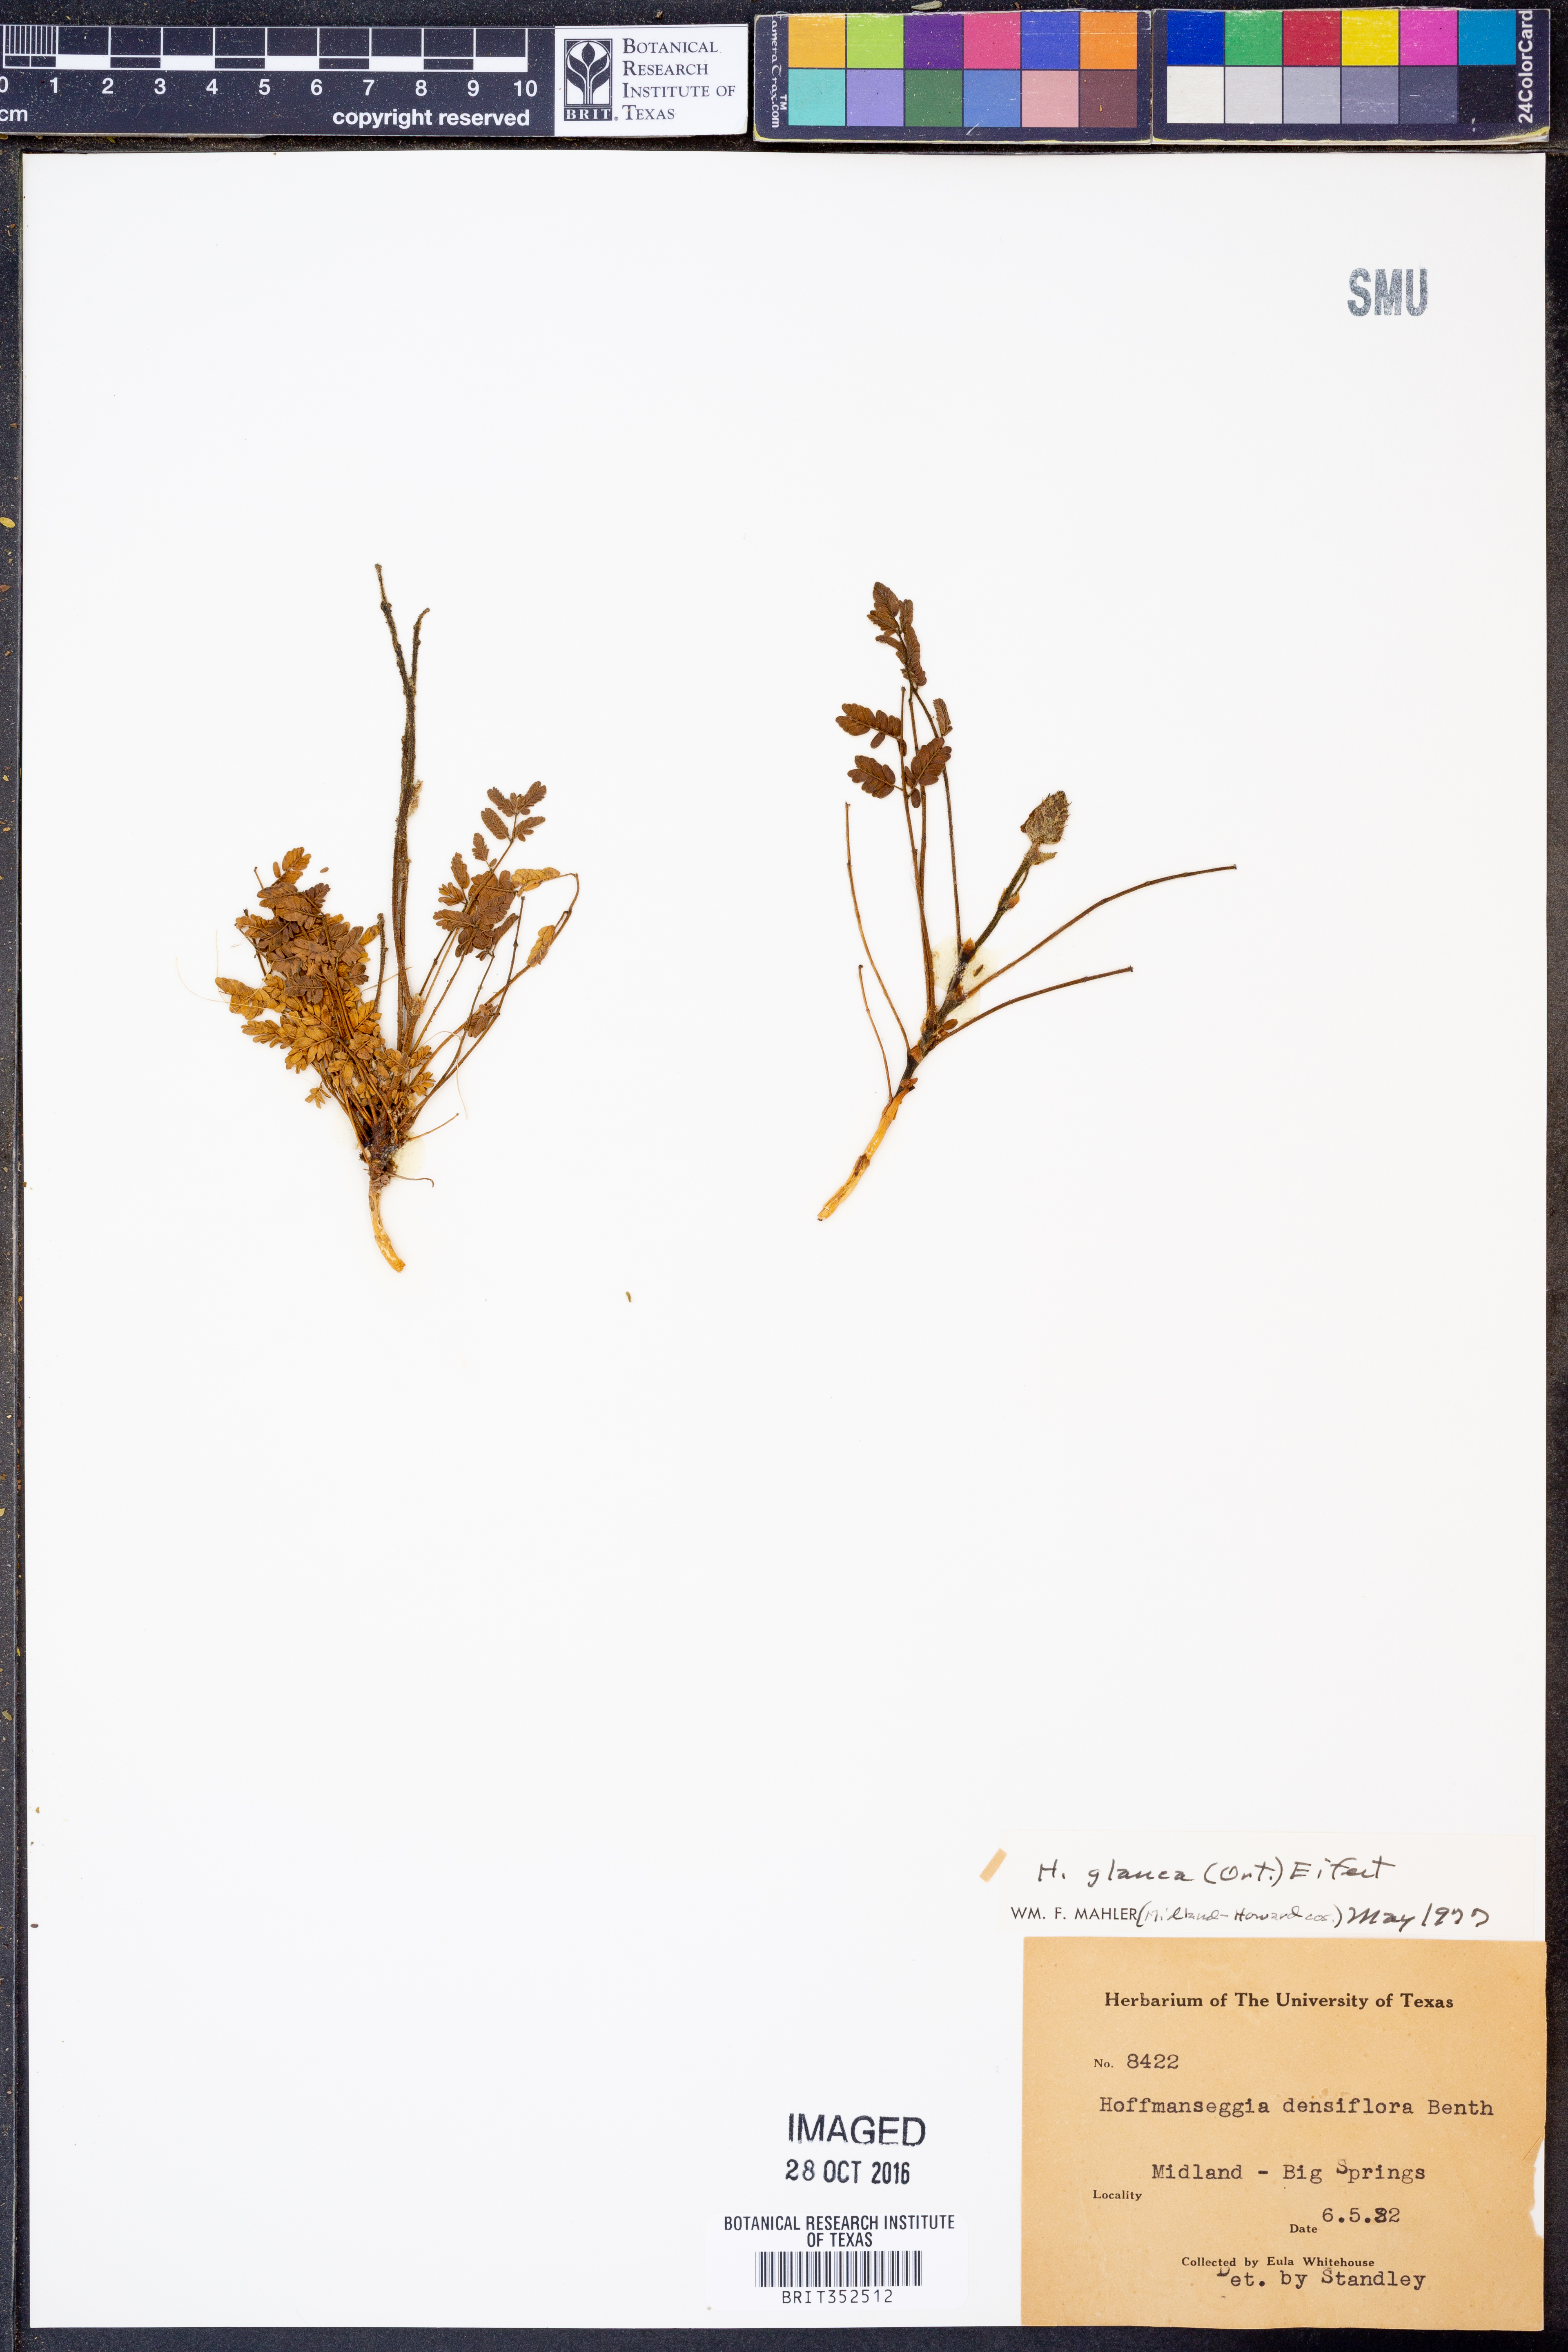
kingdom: Plantae
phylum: Tracheophyta
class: Magnoliopsida
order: Fabales
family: Fabaceae
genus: Hoffmannseggia
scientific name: Hoffmannseggia glauca
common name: Pignut
